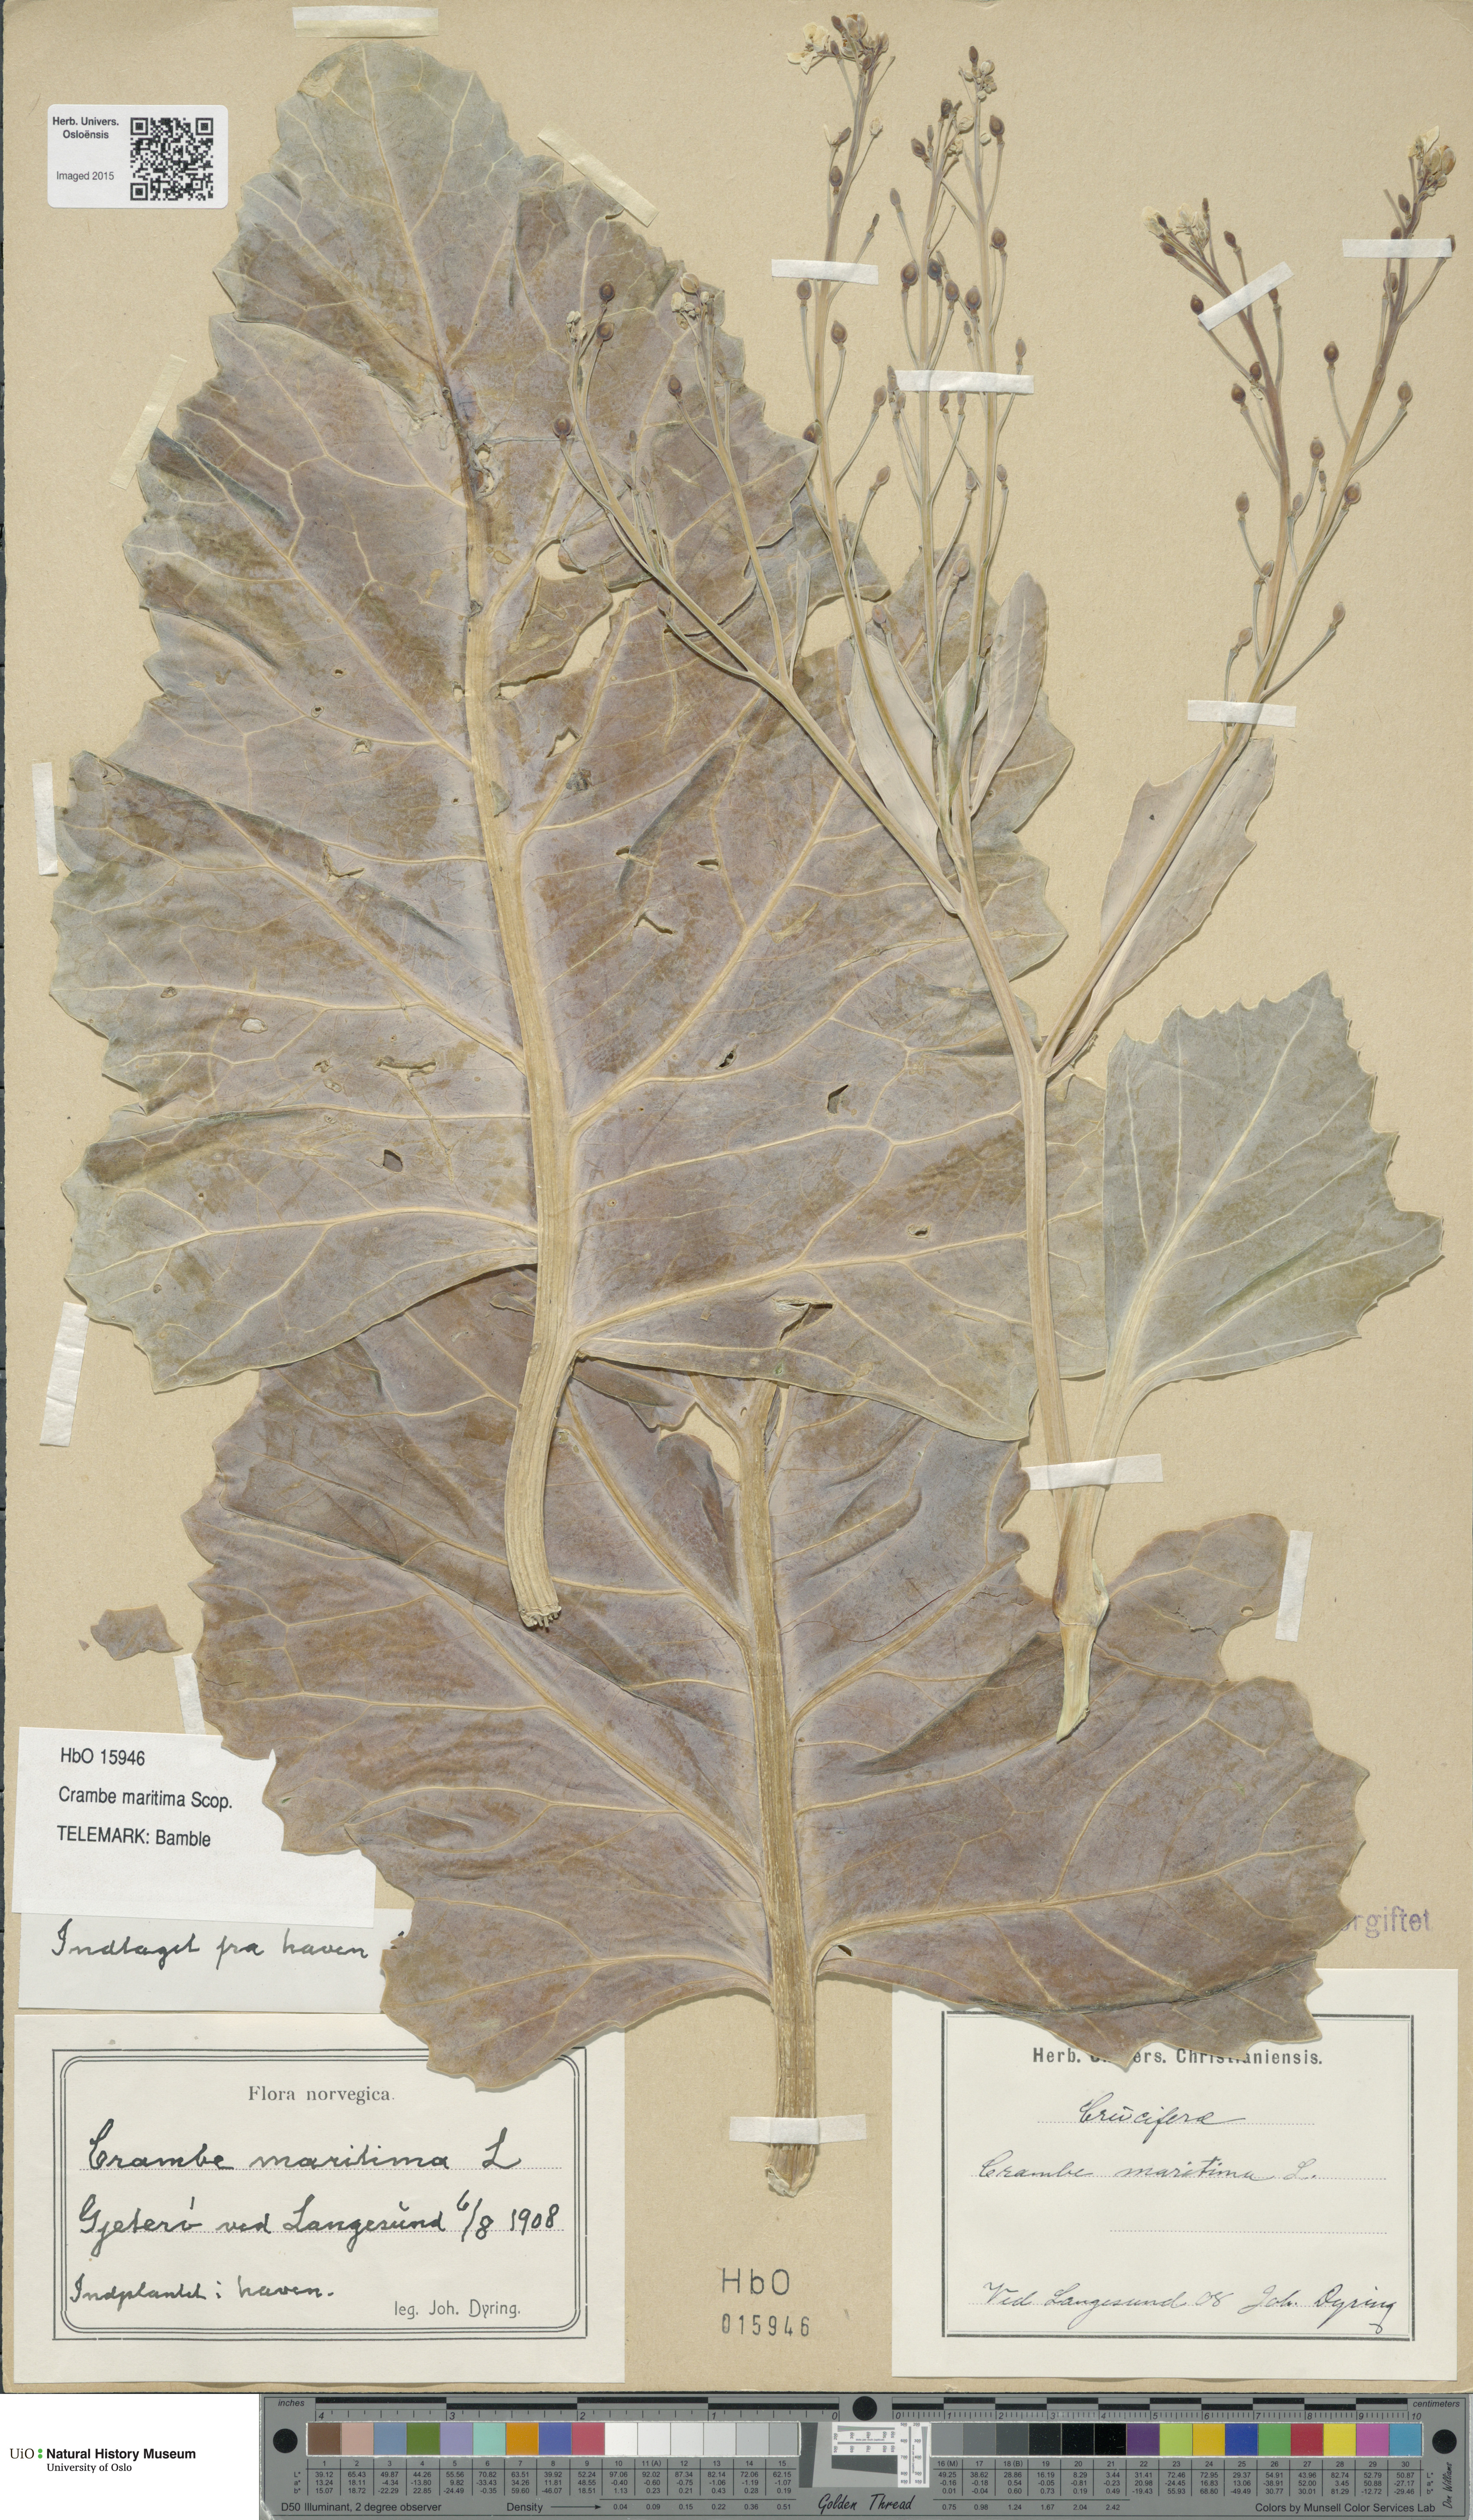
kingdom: Plantae
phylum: Tracheophyta
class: Magnoliopsida
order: Brassicales
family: Brassicaceae
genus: Crambe
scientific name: Crambe maritima
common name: Sea-kale
